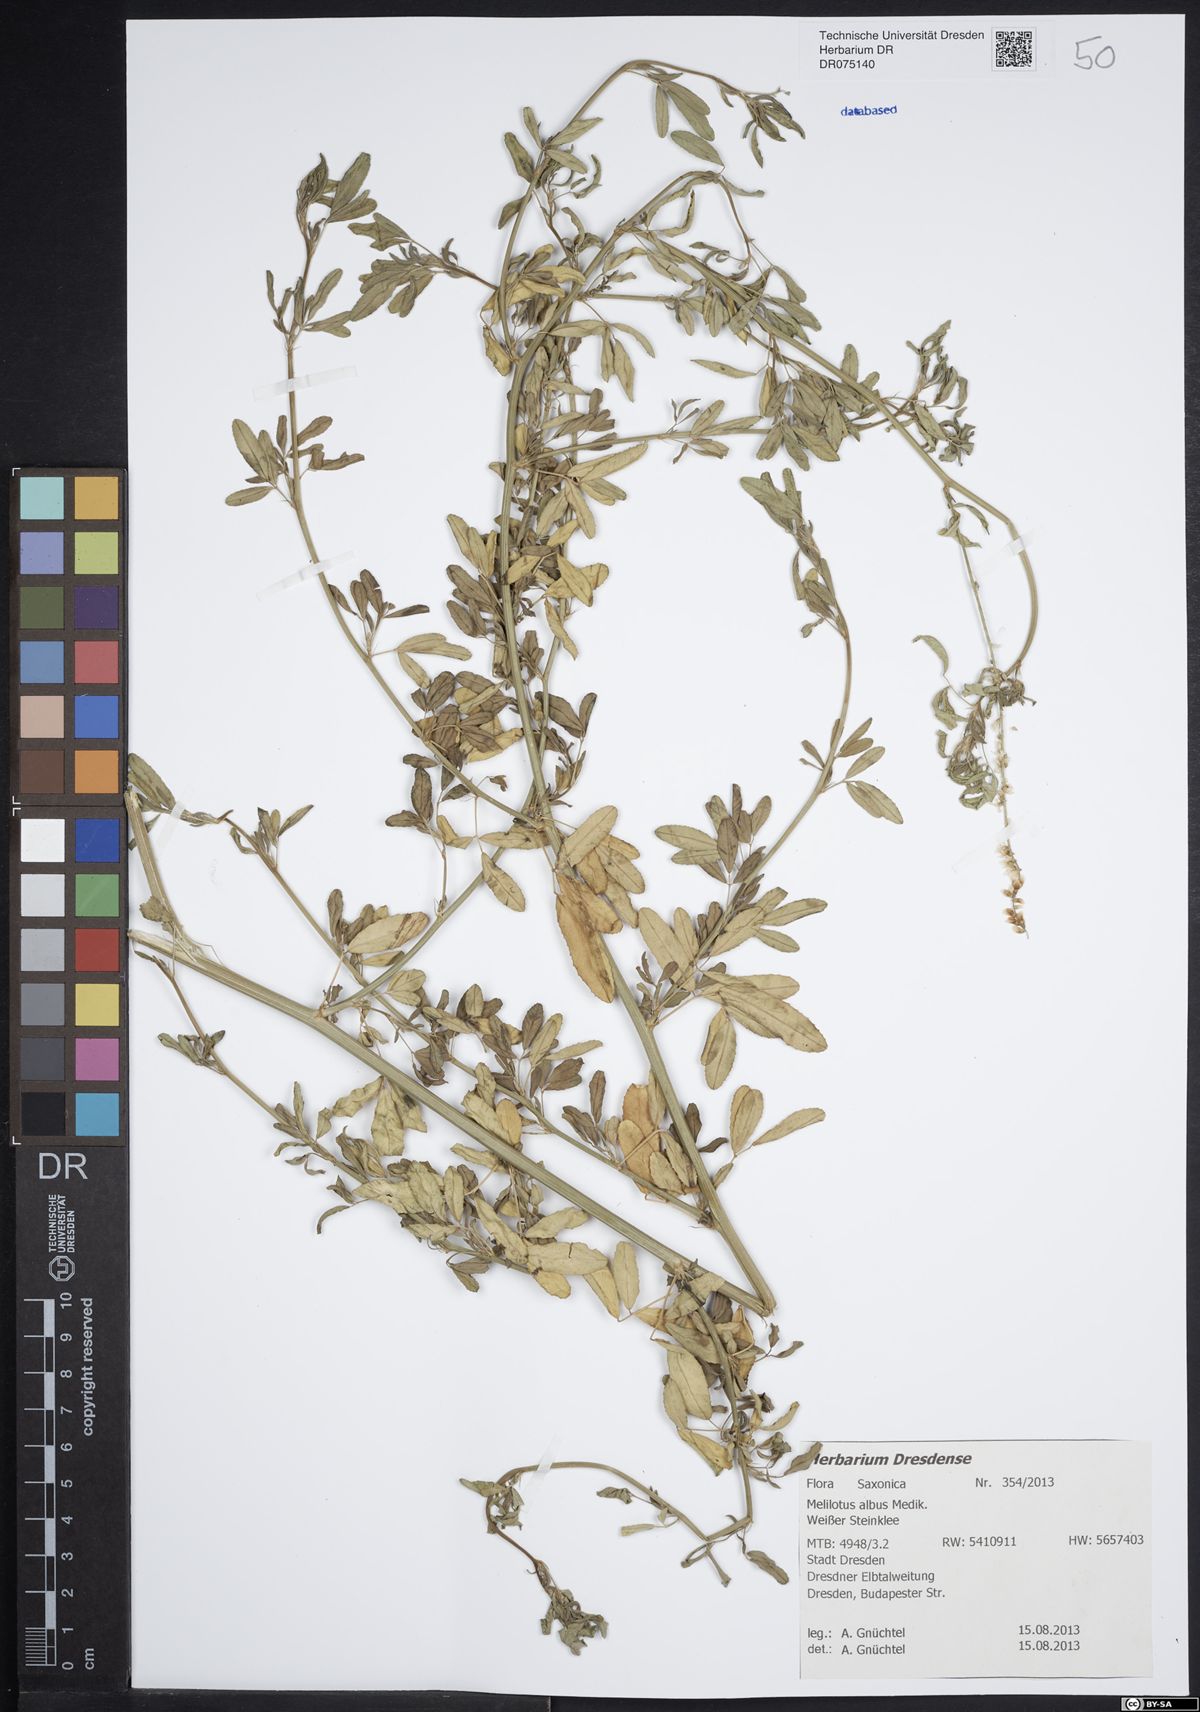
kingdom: Plantae
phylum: Tracheophyta
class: Magnoliopsida
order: Fabales
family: Fabaceae
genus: Melilotus
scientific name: Melilotus albus
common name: White melilot
